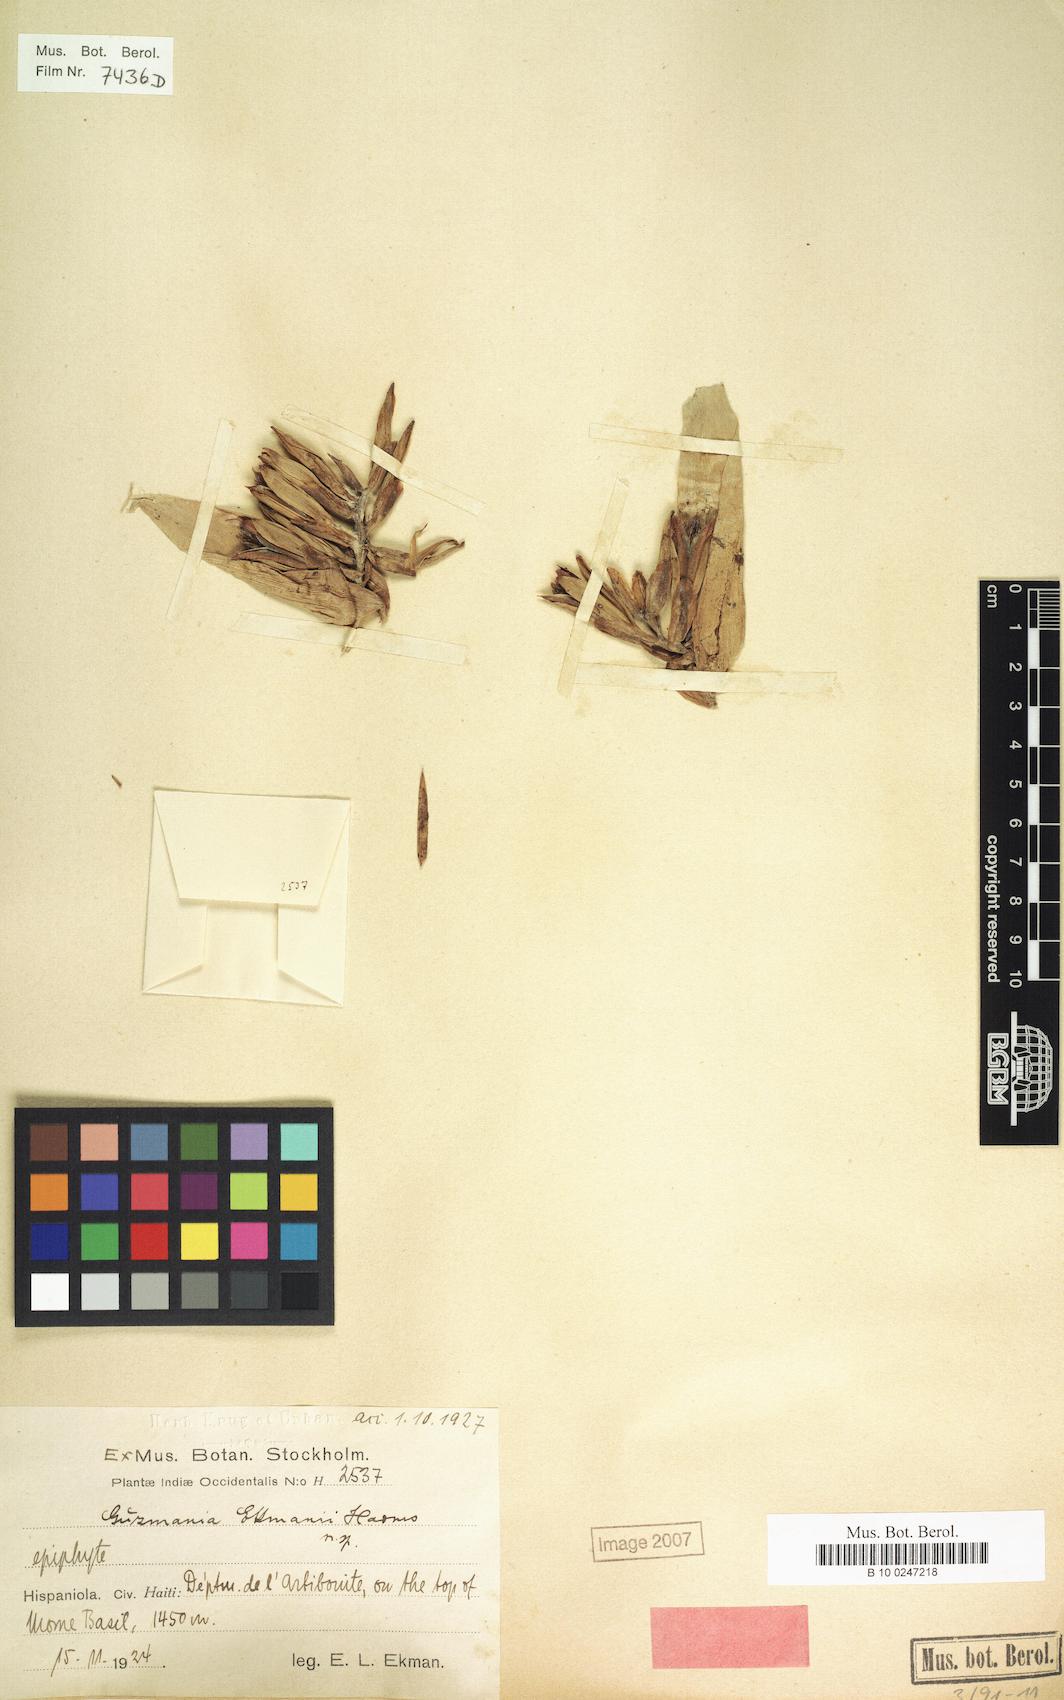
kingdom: Plantae
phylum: Tracheophyta
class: Liliopsida
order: Poales
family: Bromeliaceae
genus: Guzmania
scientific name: Guzmania ekmanii
